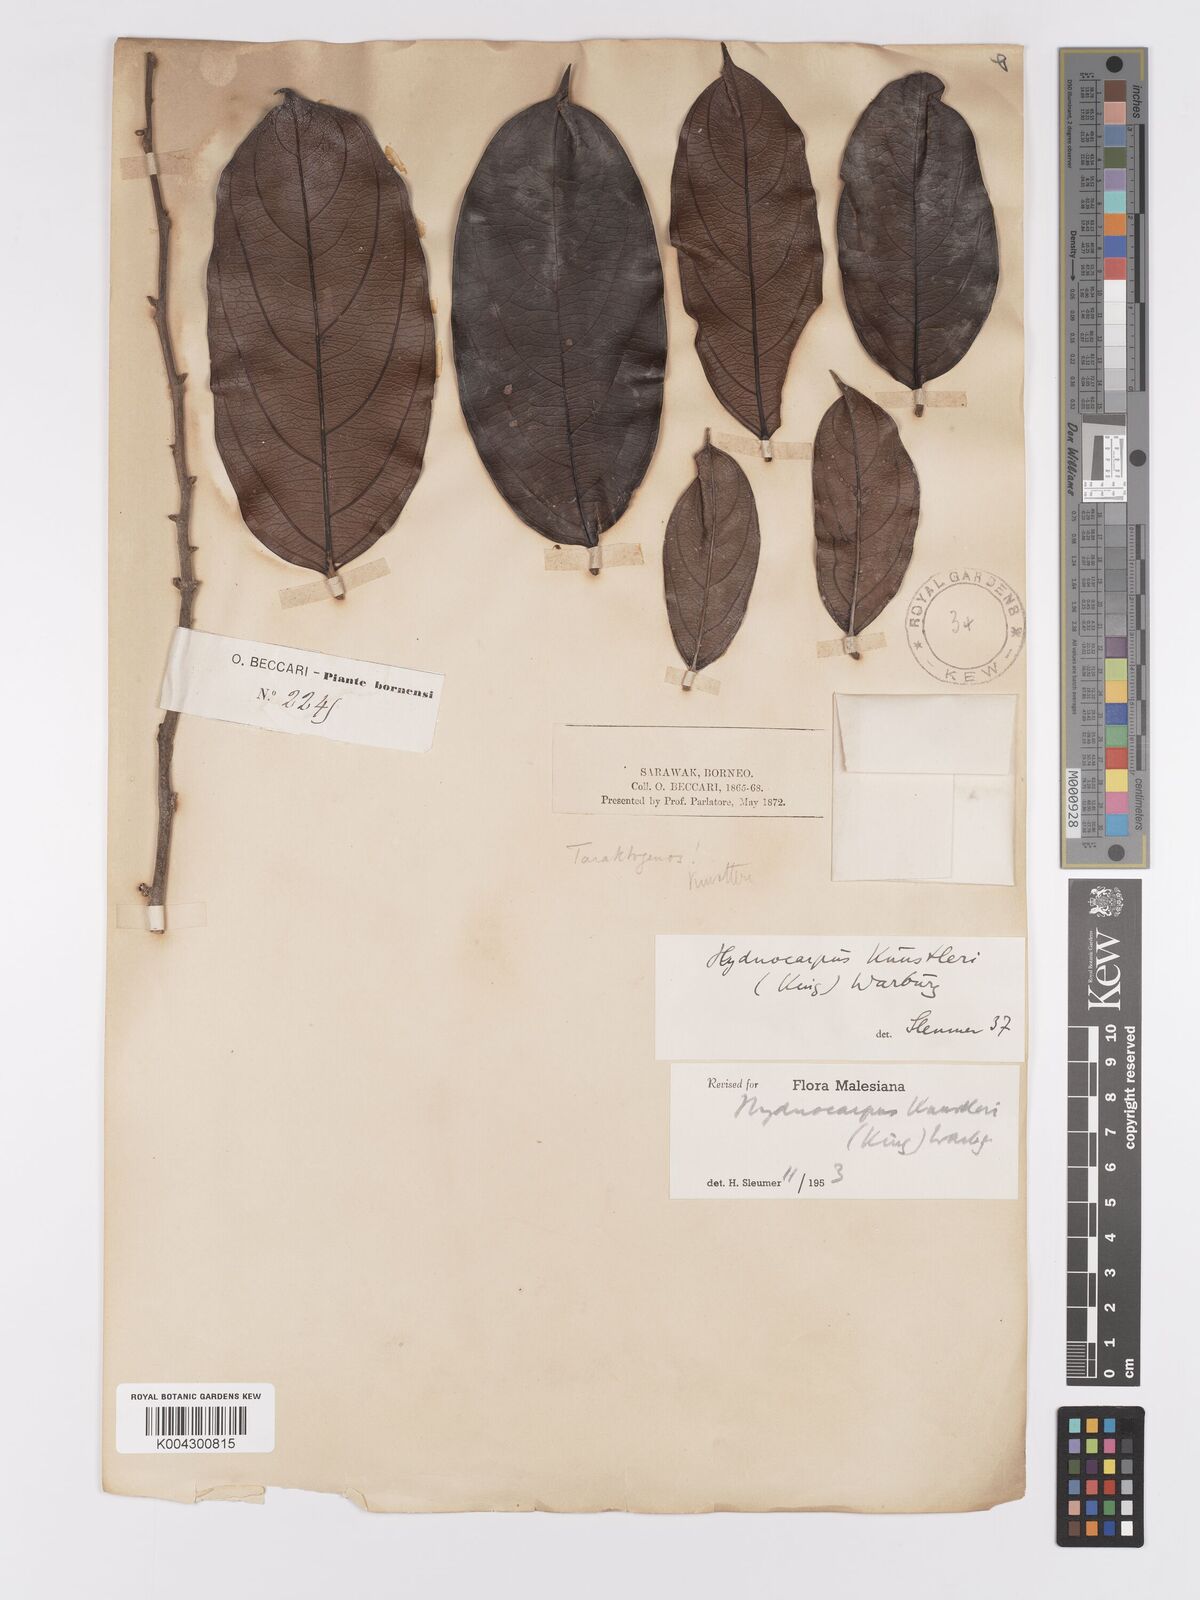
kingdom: Plantae
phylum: Tracheophyta
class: Magnoliopsida
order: Malpighiales
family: Achariaceae
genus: Hydnocarpus
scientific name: Hydnocarpus kunstleri
